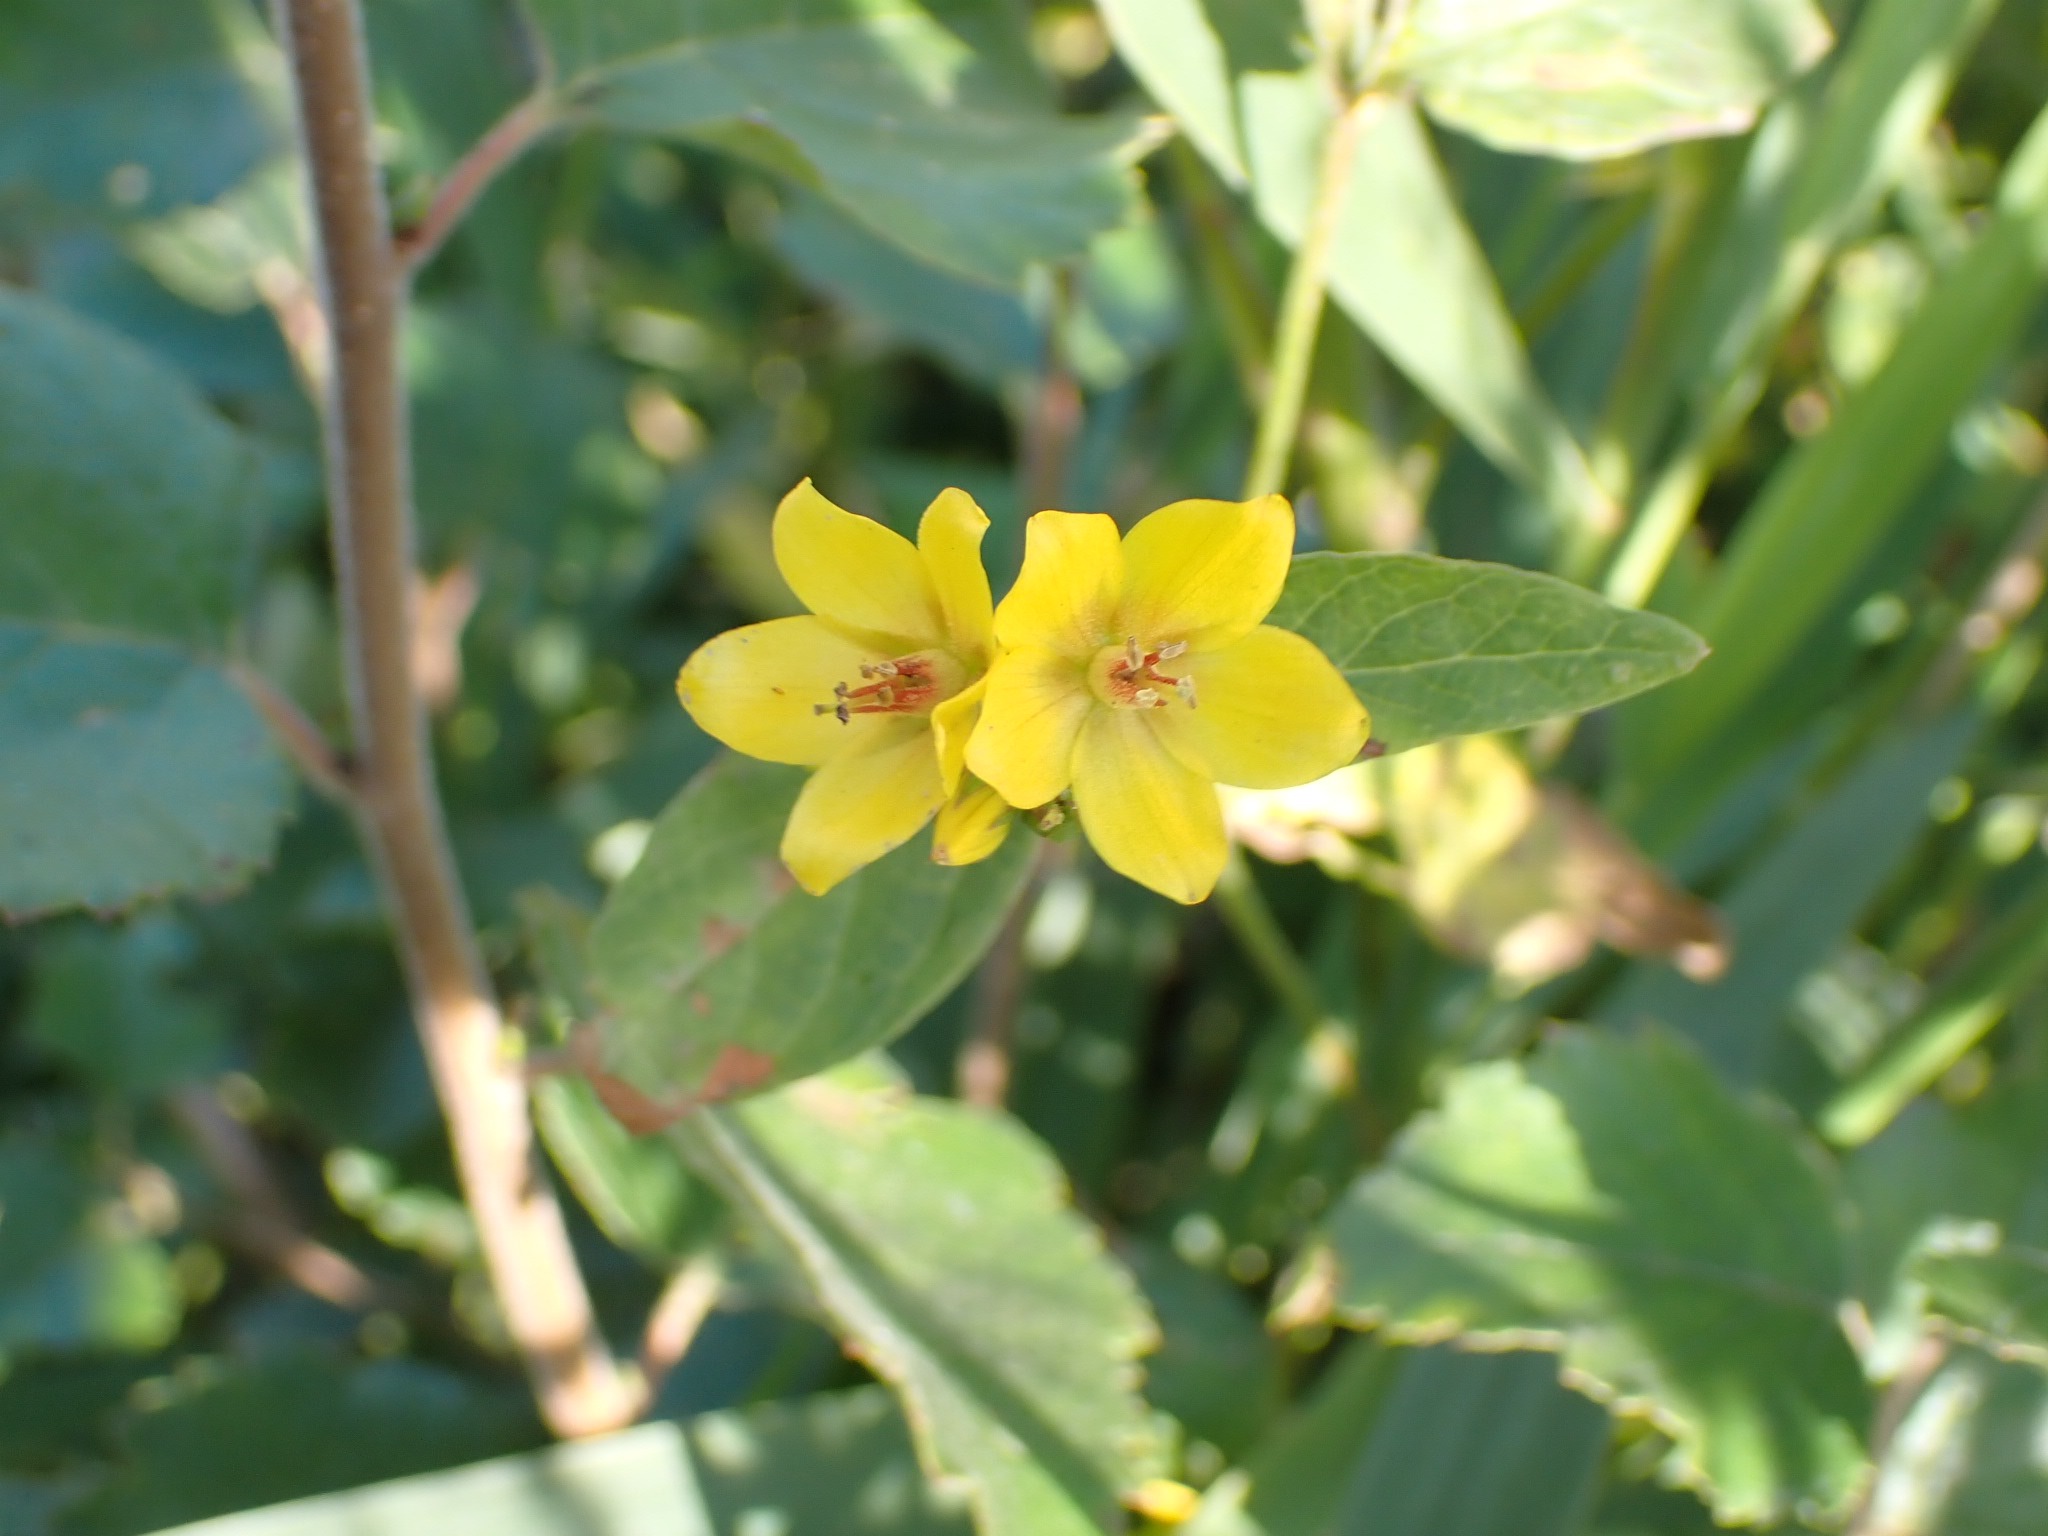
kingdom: Plantae
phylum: Tracheophyta
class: Magnoliopsida
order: Ericales
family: Primulaceae
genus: Lysimachia
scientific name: Lysimachia vulgaris
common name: Almindelig fredløs
